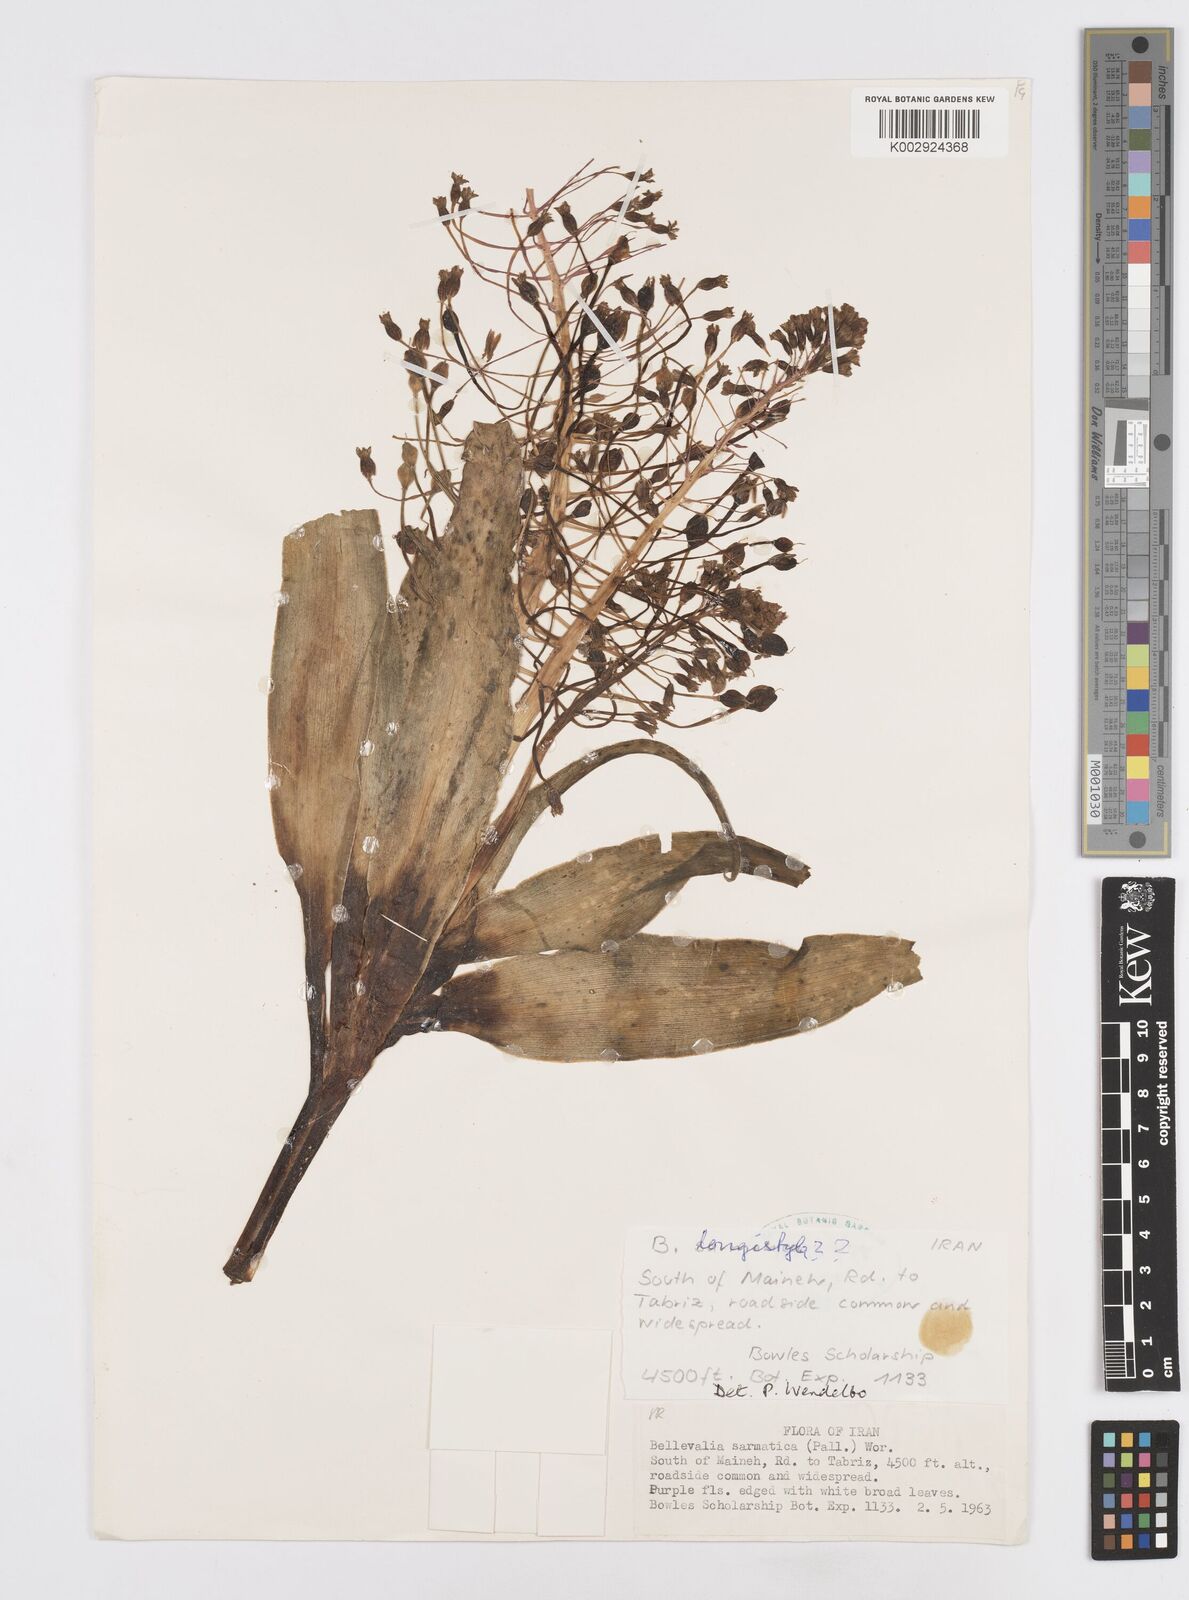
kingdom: Plantae
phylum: Tracheophyta
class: Liliopsida
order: Asparagales
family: Asparagaceae
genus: Bellevalia
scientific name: Bellevalia longistyla
